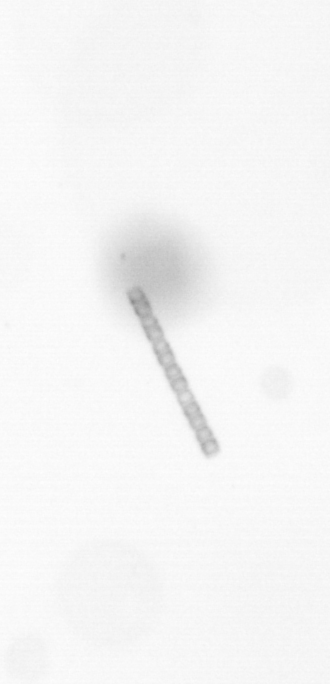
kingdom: Chromista
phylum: Ochrophyta
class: Bacillariophyceae
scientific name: Bacillariophyceae
